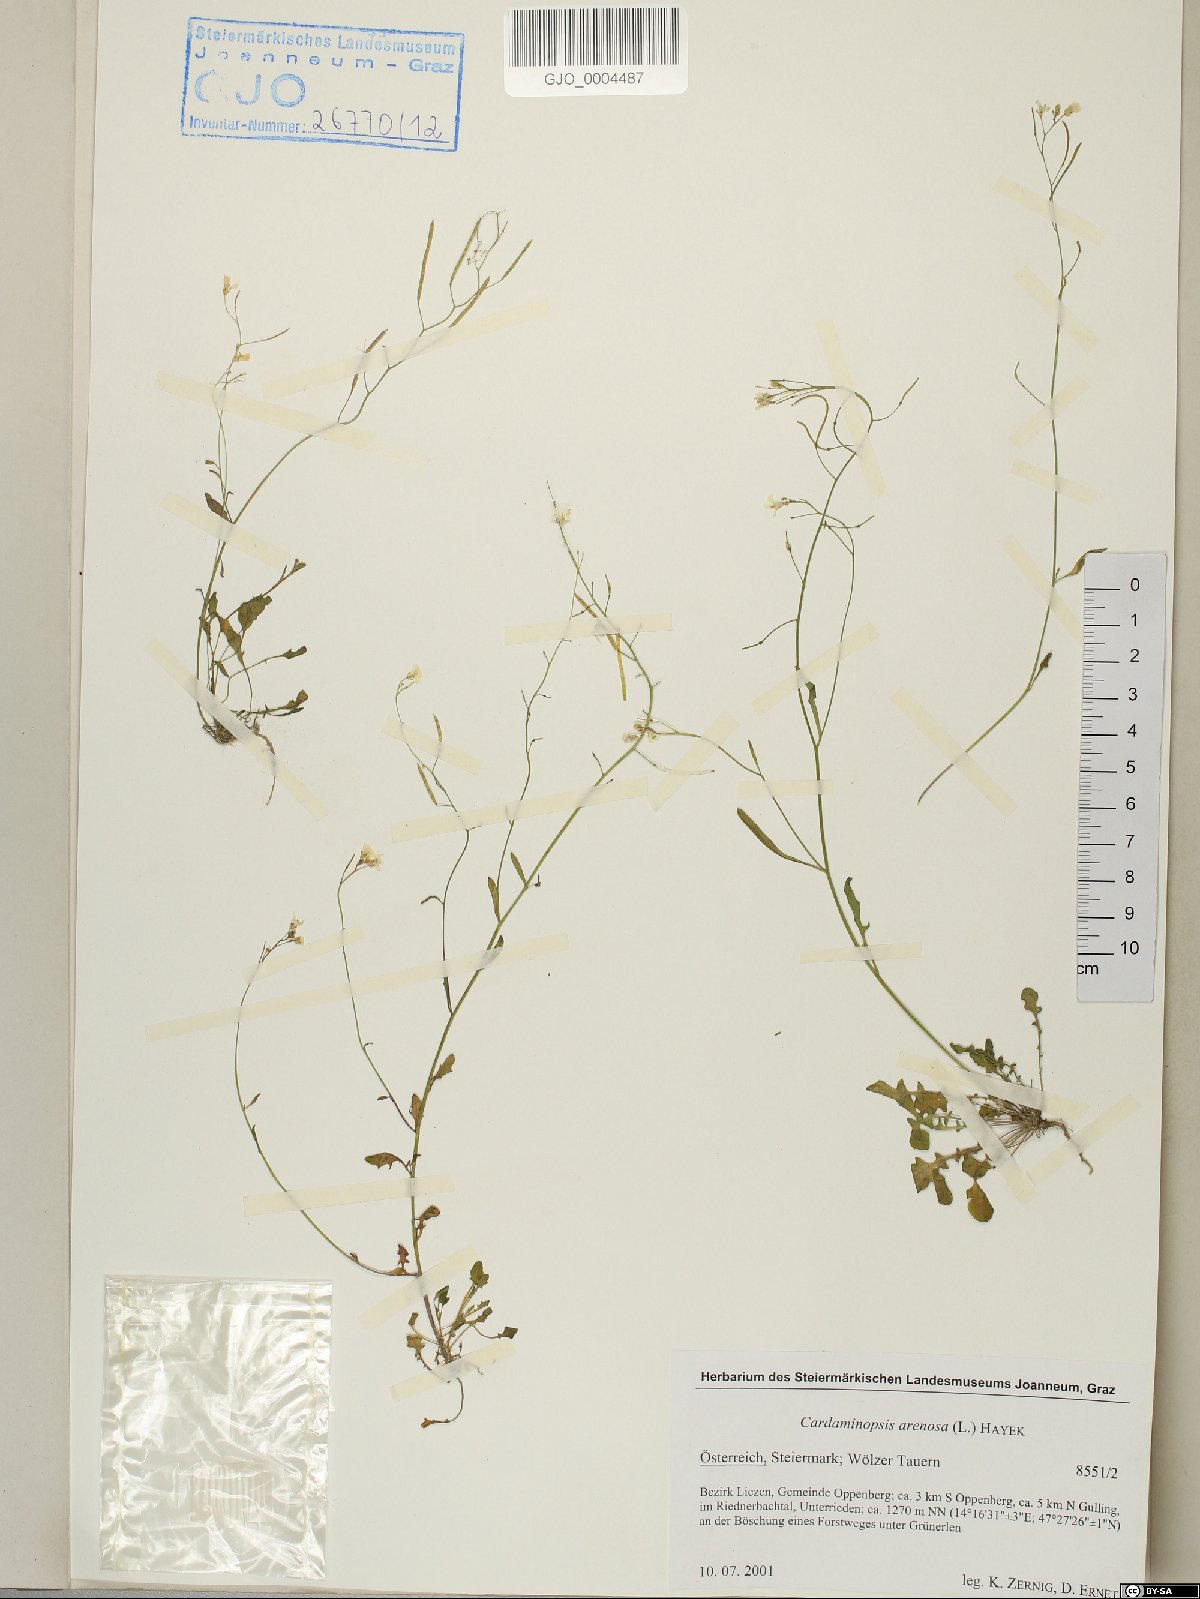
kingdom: Plantae
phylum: Tracheophyta
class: Magnoliopsida
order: Brassicales
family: Brassicaceae
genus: Arabidopsis
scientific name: Arabidopsis arenosa
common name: Sand rock-cress
